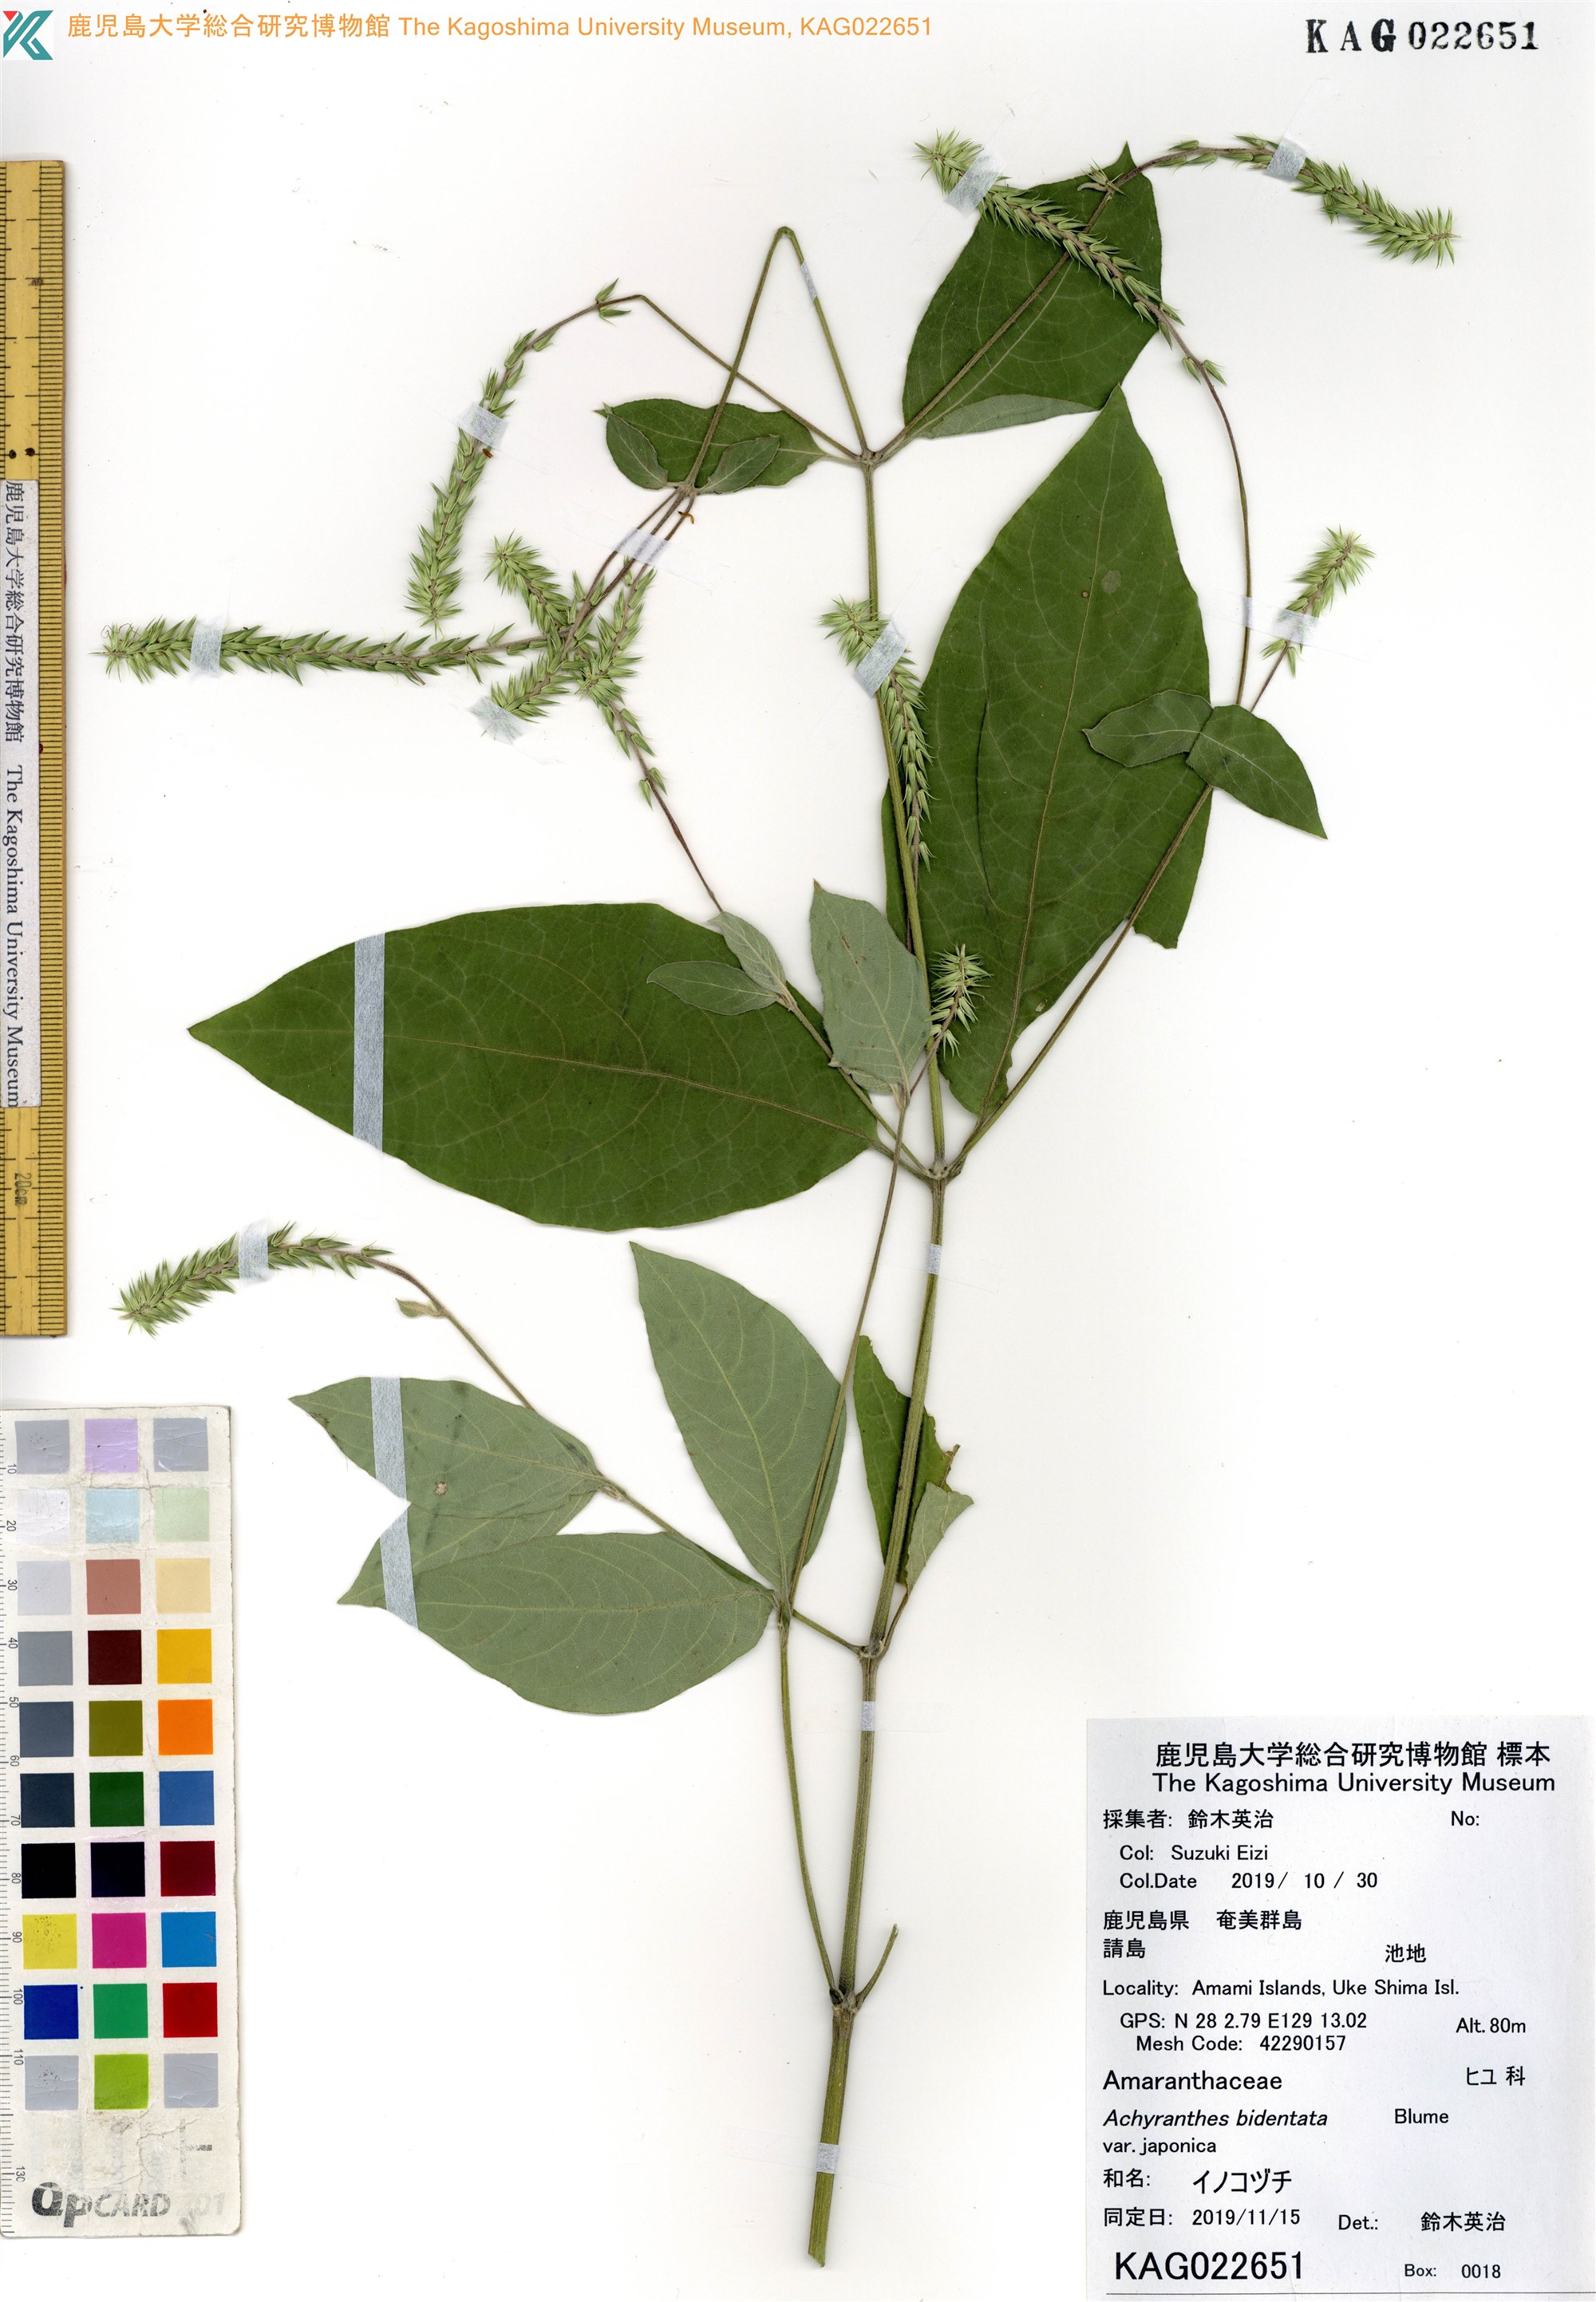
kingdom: Plantae
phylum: Tracheophyta
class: Magnoliopsida
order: Caryophyllales
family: Amaranthaceae
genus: Achyranthes
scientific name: Achyranthes bidentata
